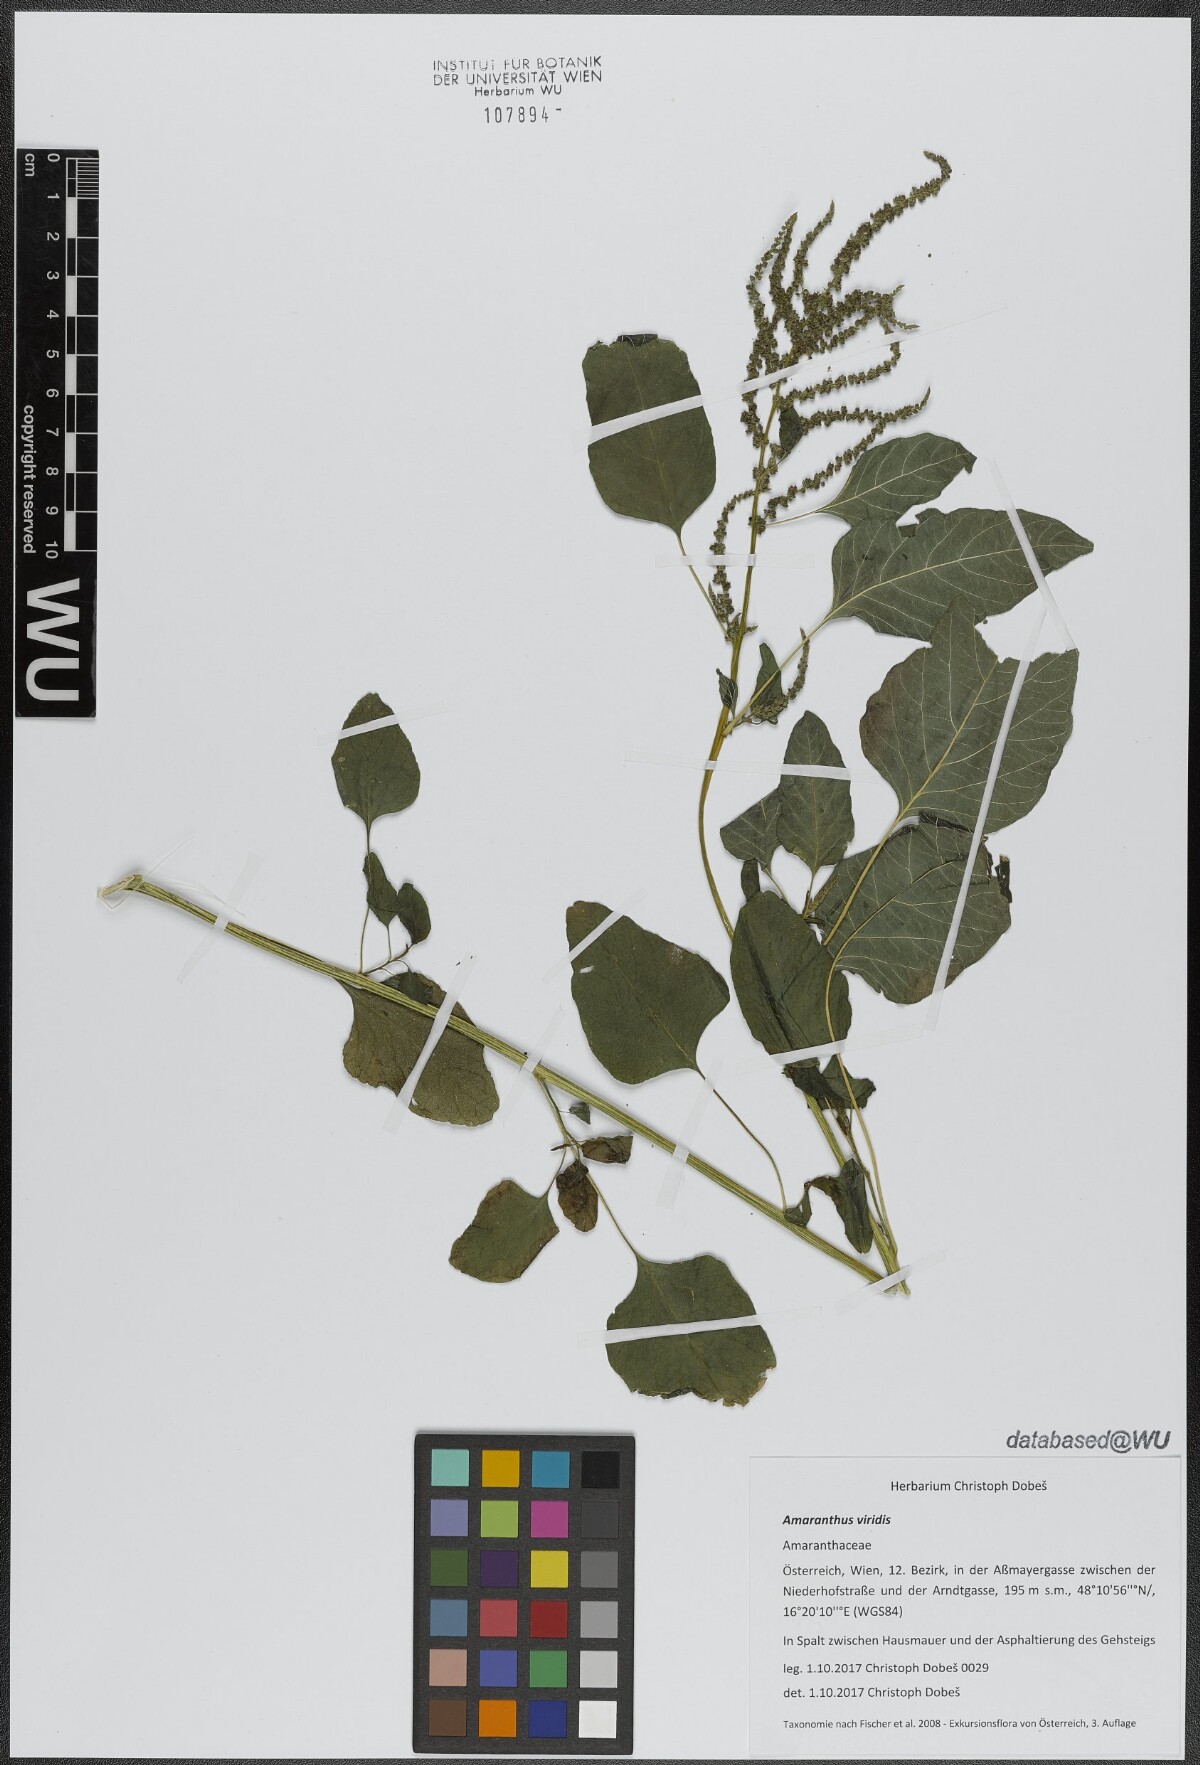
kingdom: Plantae
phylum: Tracheophyta
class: Magnoliopsida
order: Caryophyllales
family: Amaranthaceae
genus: Amaranthus
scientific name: Amaranthus viridis
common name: Slender amaranth
